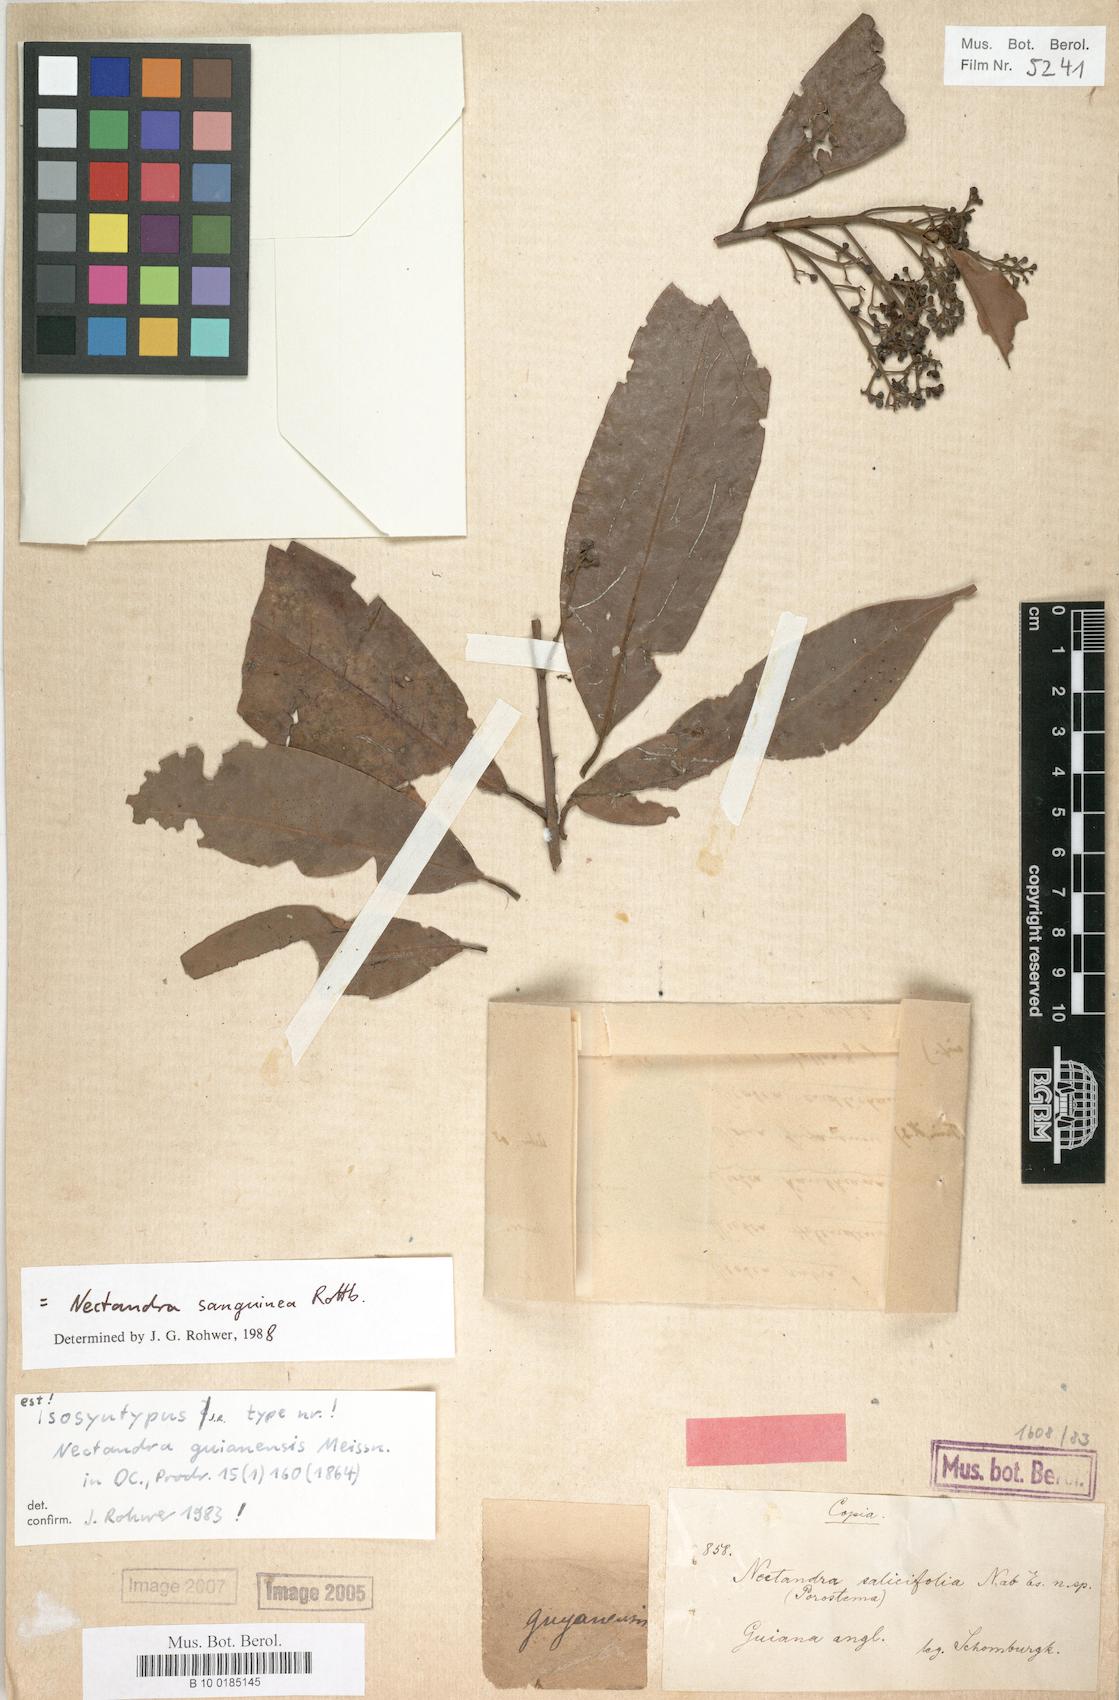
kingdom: Plantae
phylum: Tracheophyta
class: Magnoliopsida
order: Laurales
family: Lauraceae
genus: Nectandra
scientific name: Nectandra sanguinea
